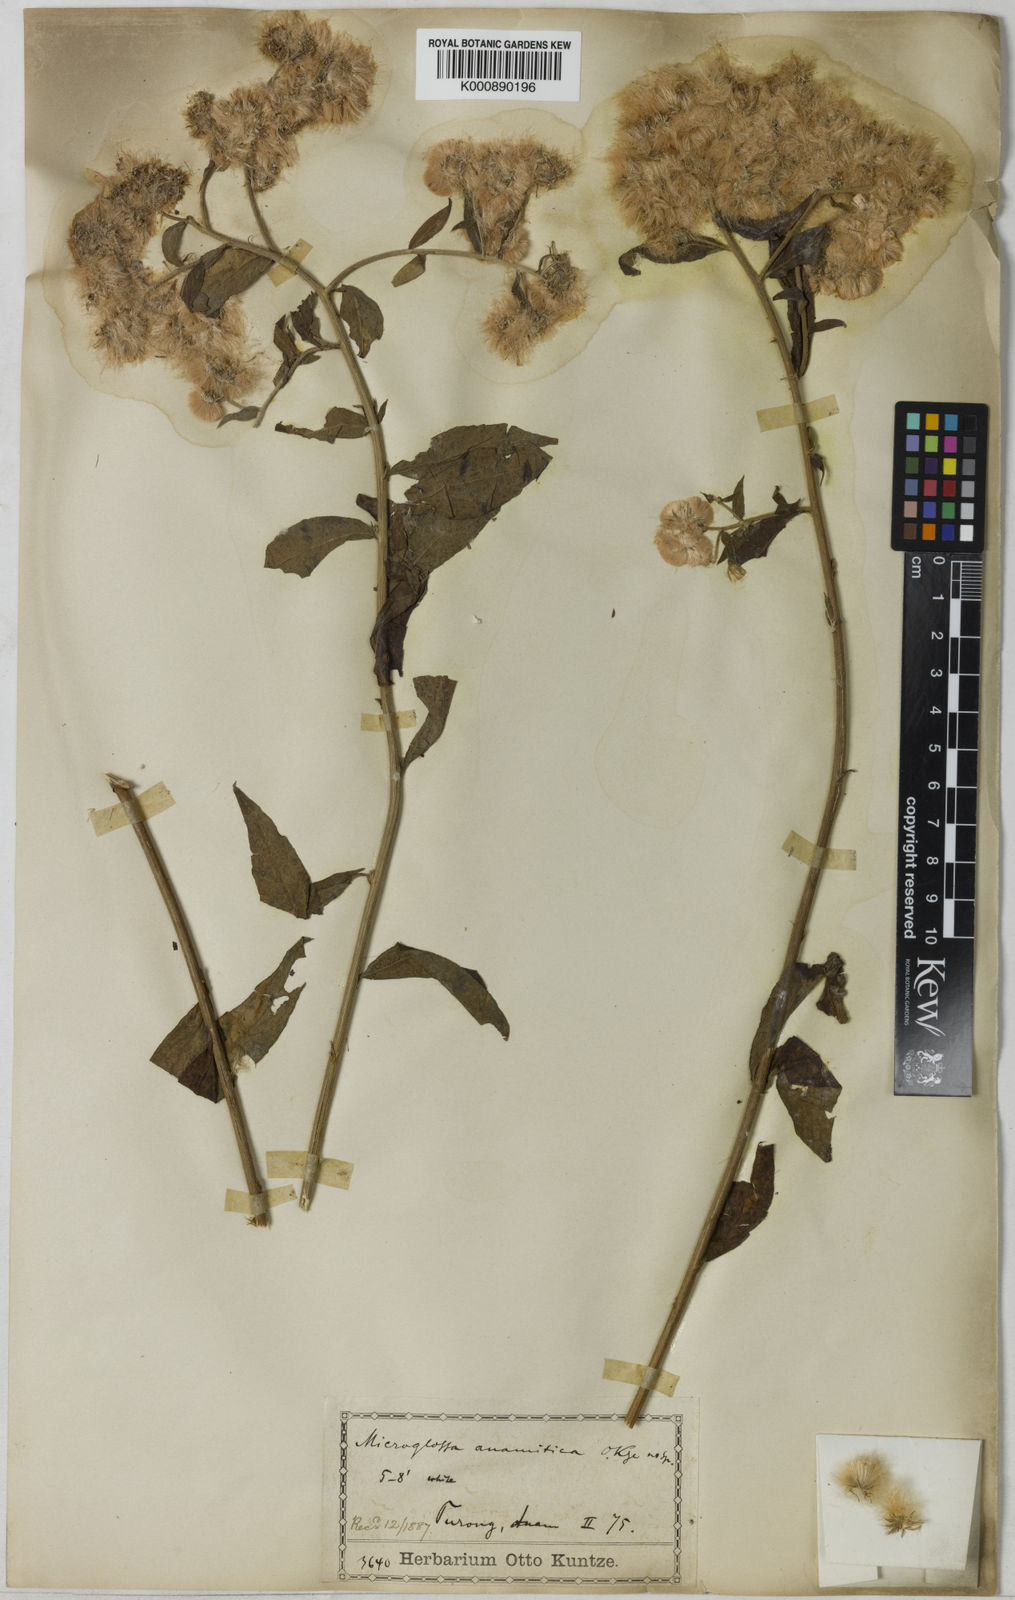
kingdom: Plantae
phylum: Tracheophyta
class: Magnoliopsida
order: Asterales
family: Asteraceae
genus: Microglossa
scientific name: Microglossa
